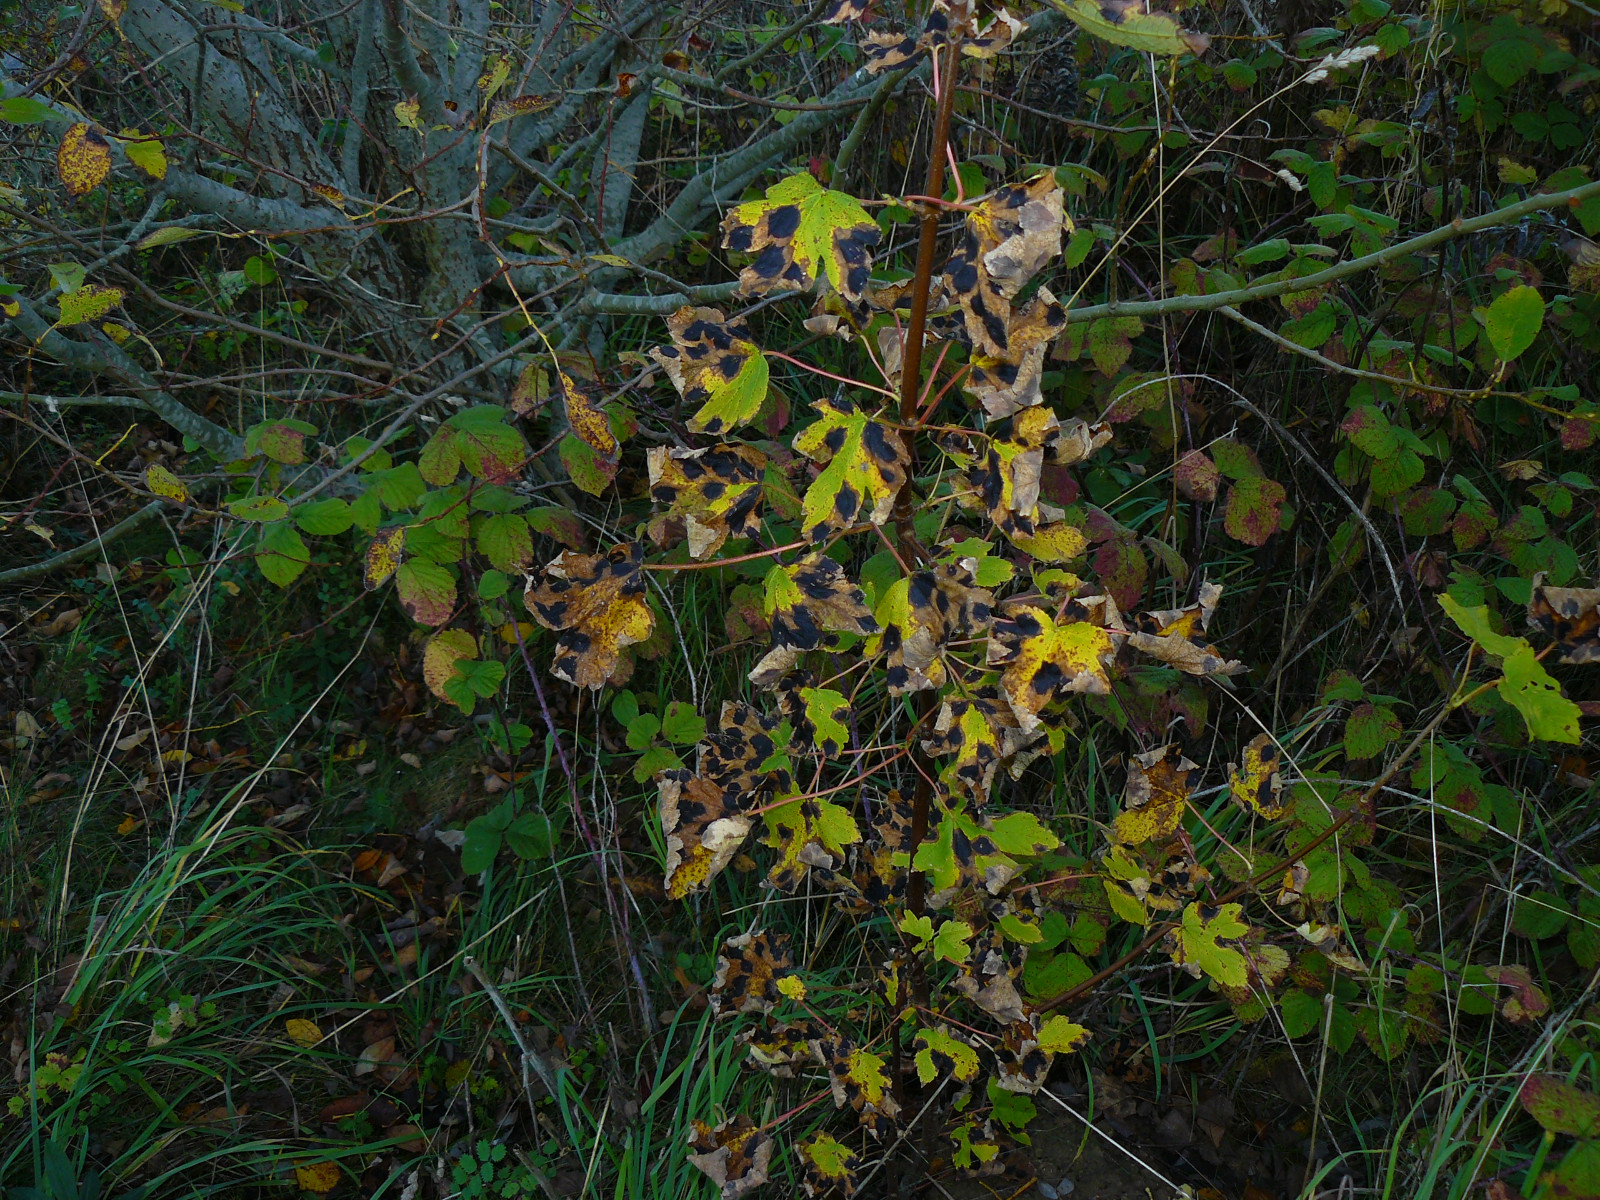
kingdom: Fungi
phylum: Ascomycota
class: Leotiomycetes
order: Rhytismatales
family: Rhytismataceae
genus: Rhytisma
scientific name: Rhytisma acerinum
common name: ahorn-rynkeplet
